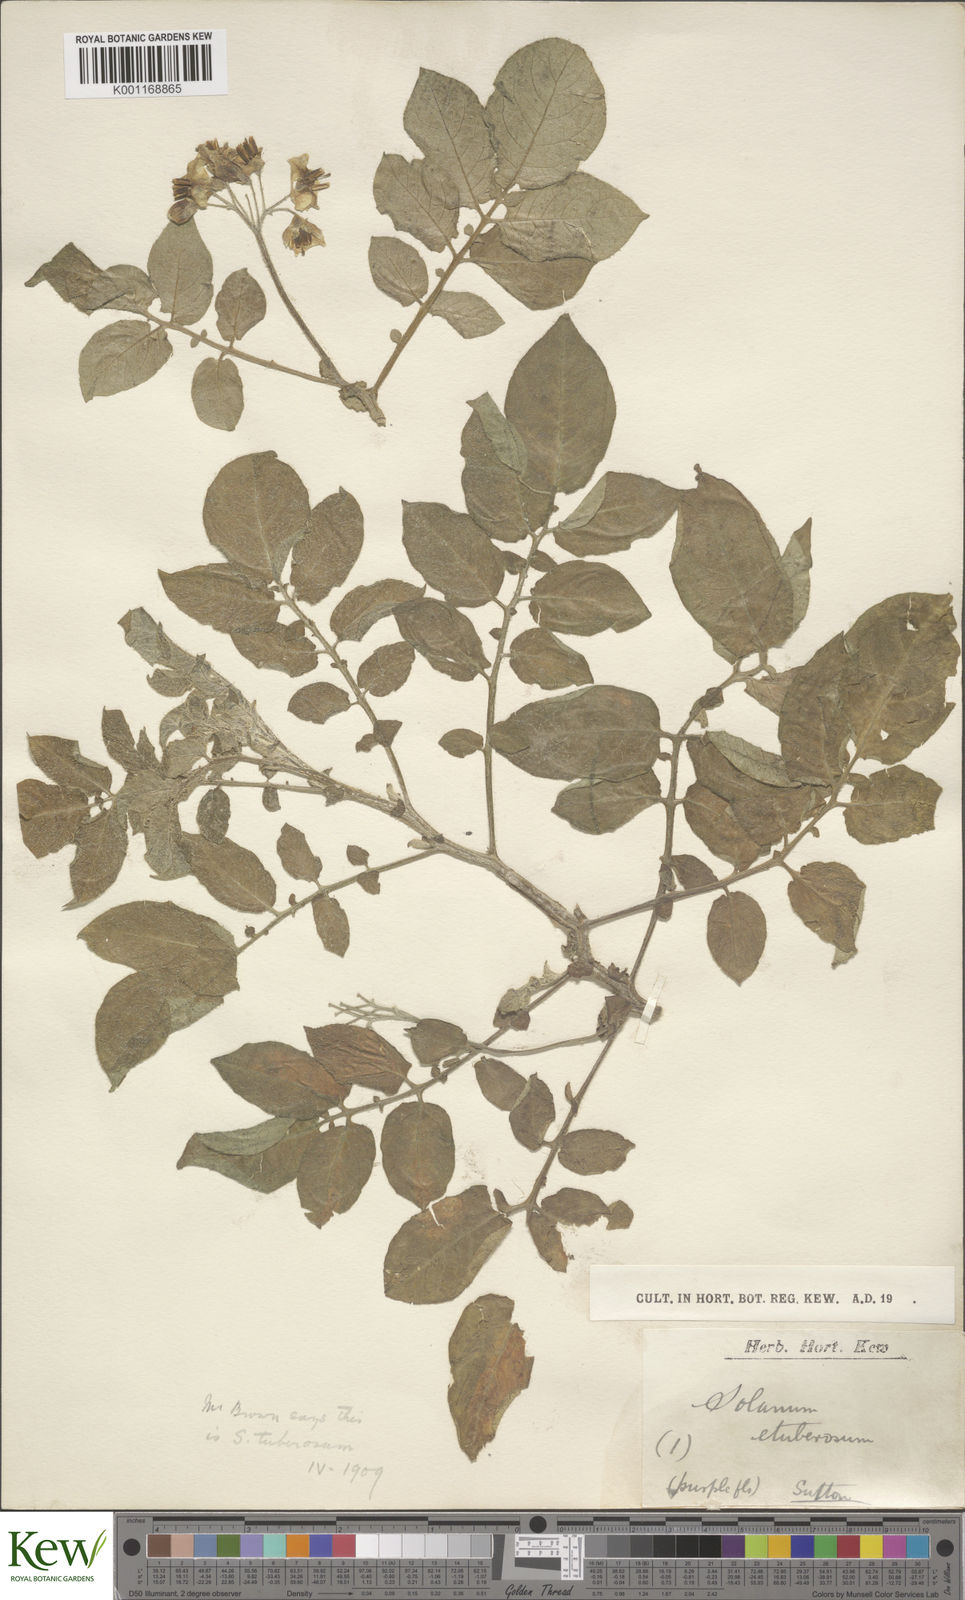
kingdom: Plantae
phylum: Tracheophyta
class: Magnoliopsida
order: Solanales
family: Solanaceae
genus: Solanum
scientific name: Solanum etuberosum
